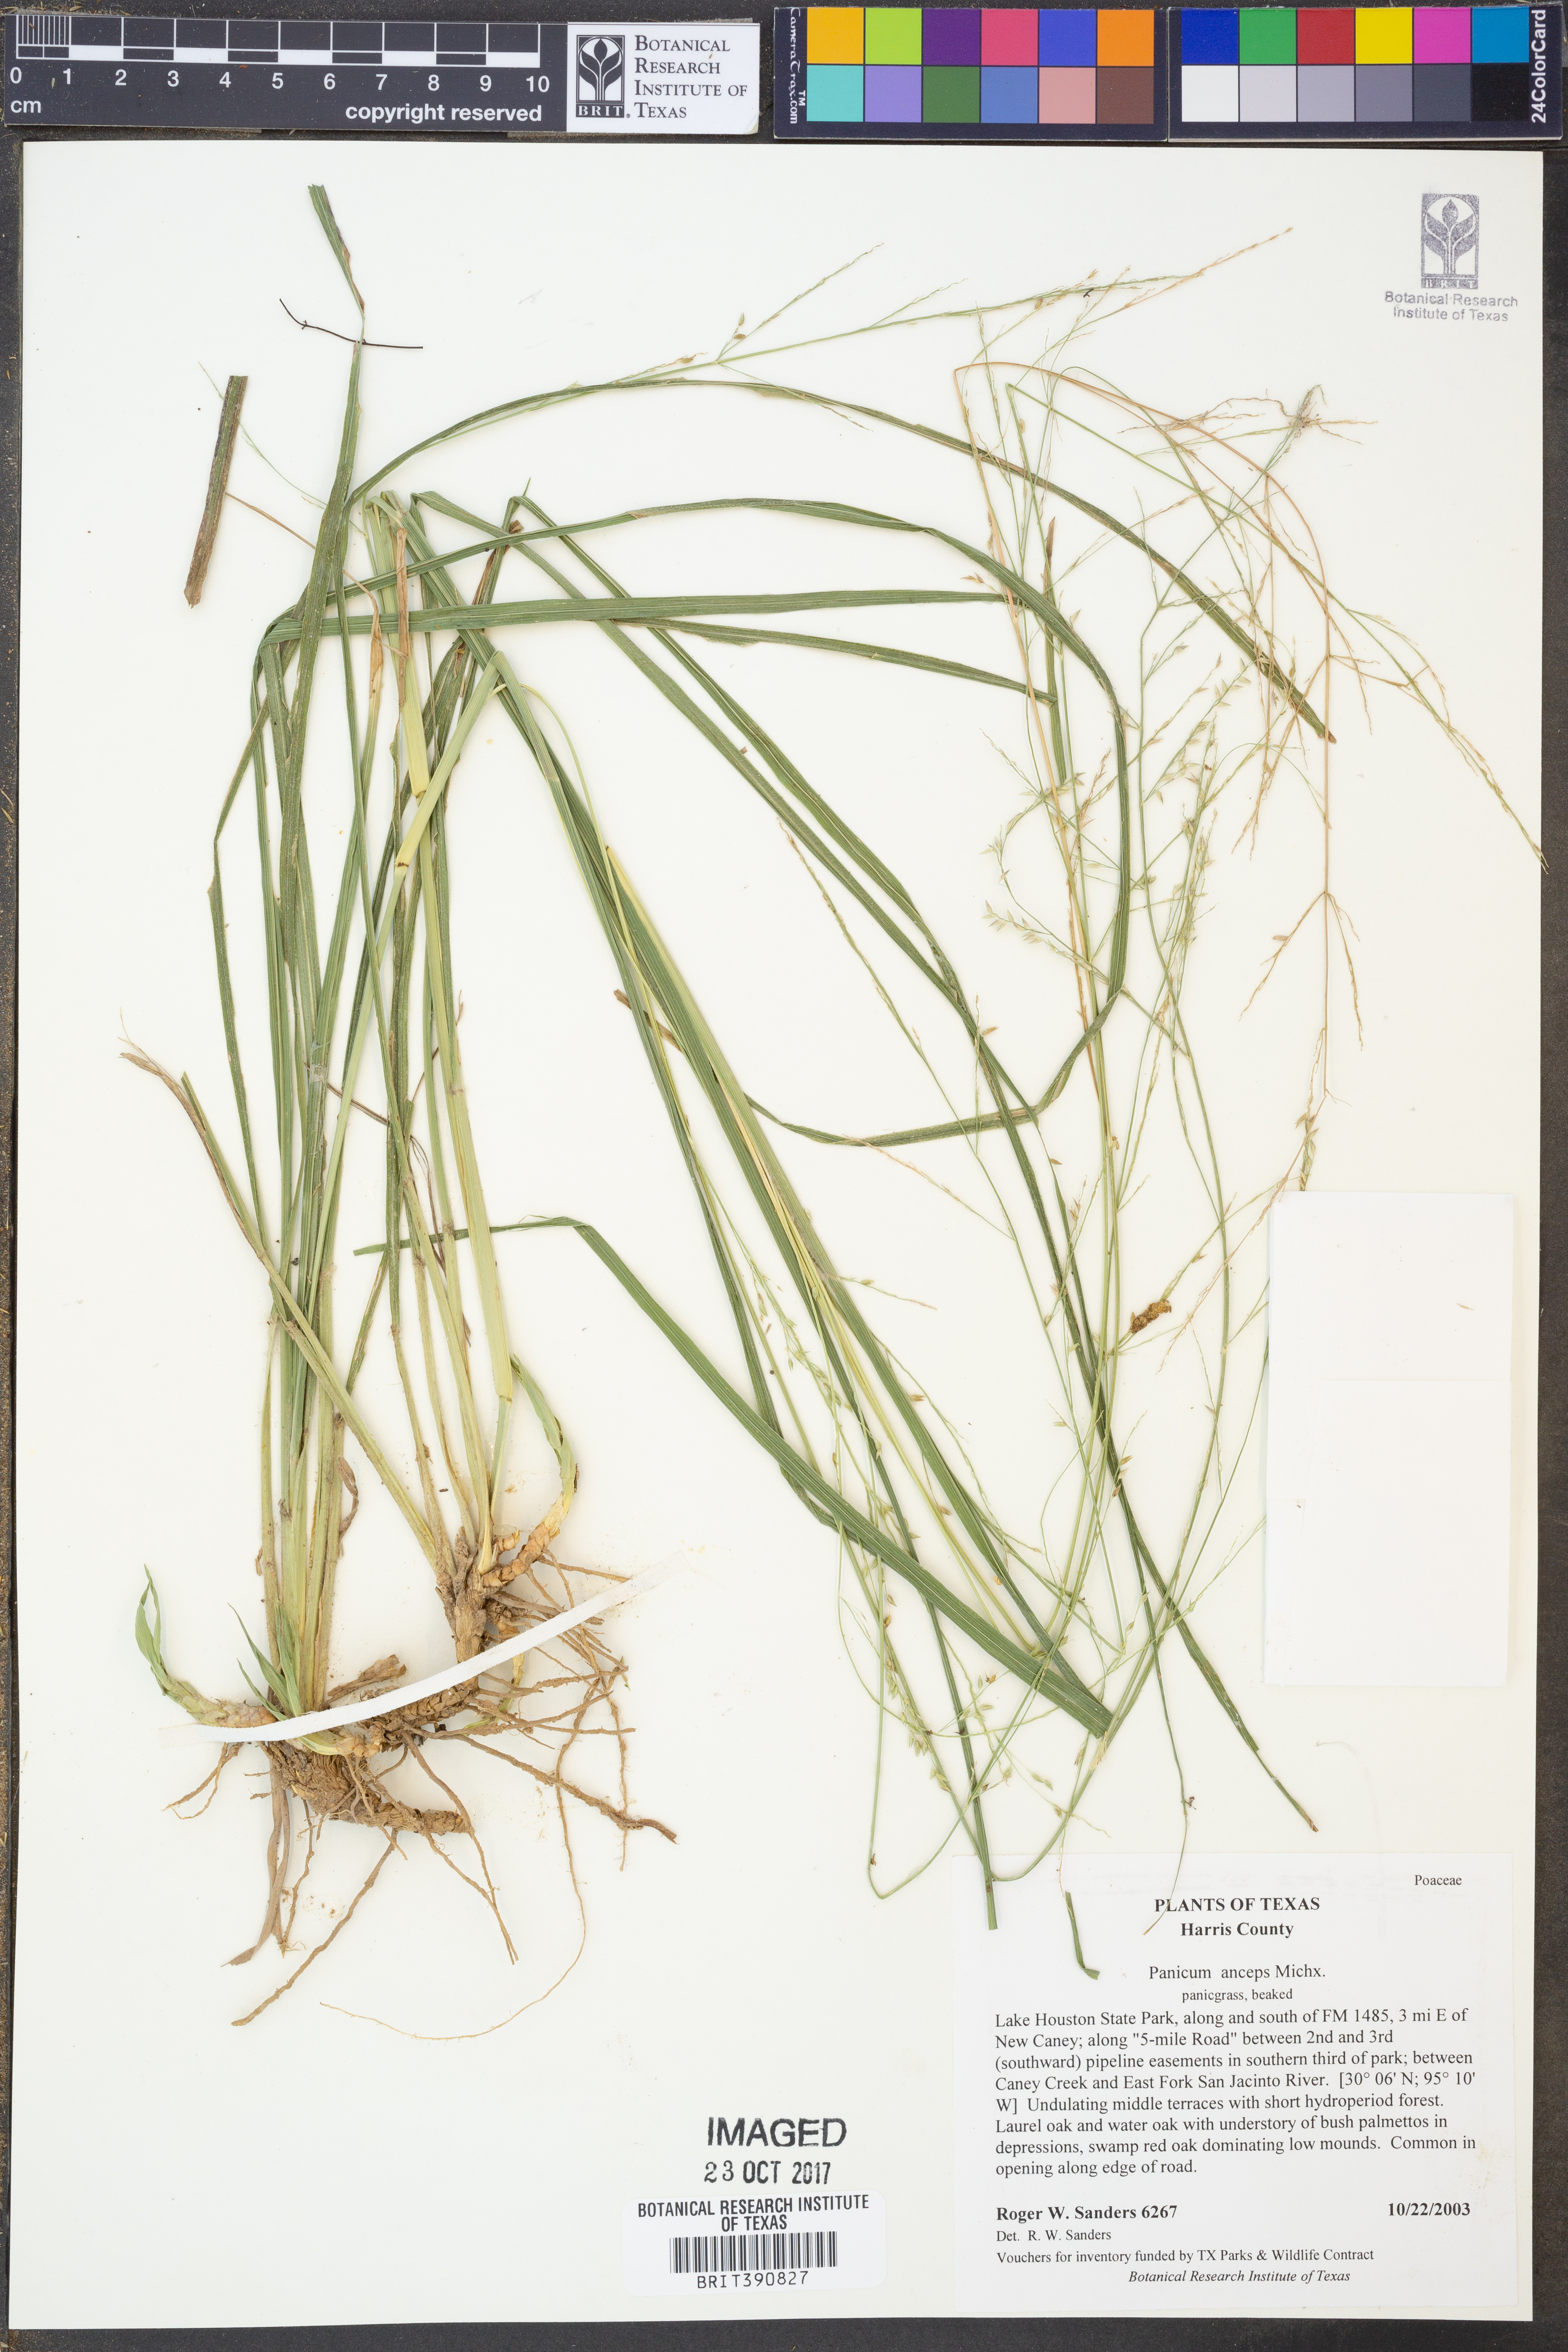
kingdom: Plantae
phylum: Tracheophyta
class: Liliopsida
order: Poales
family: Poaceae
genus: Coleataenia
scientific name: Coleataenia anceps
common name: Beaked panic grass
